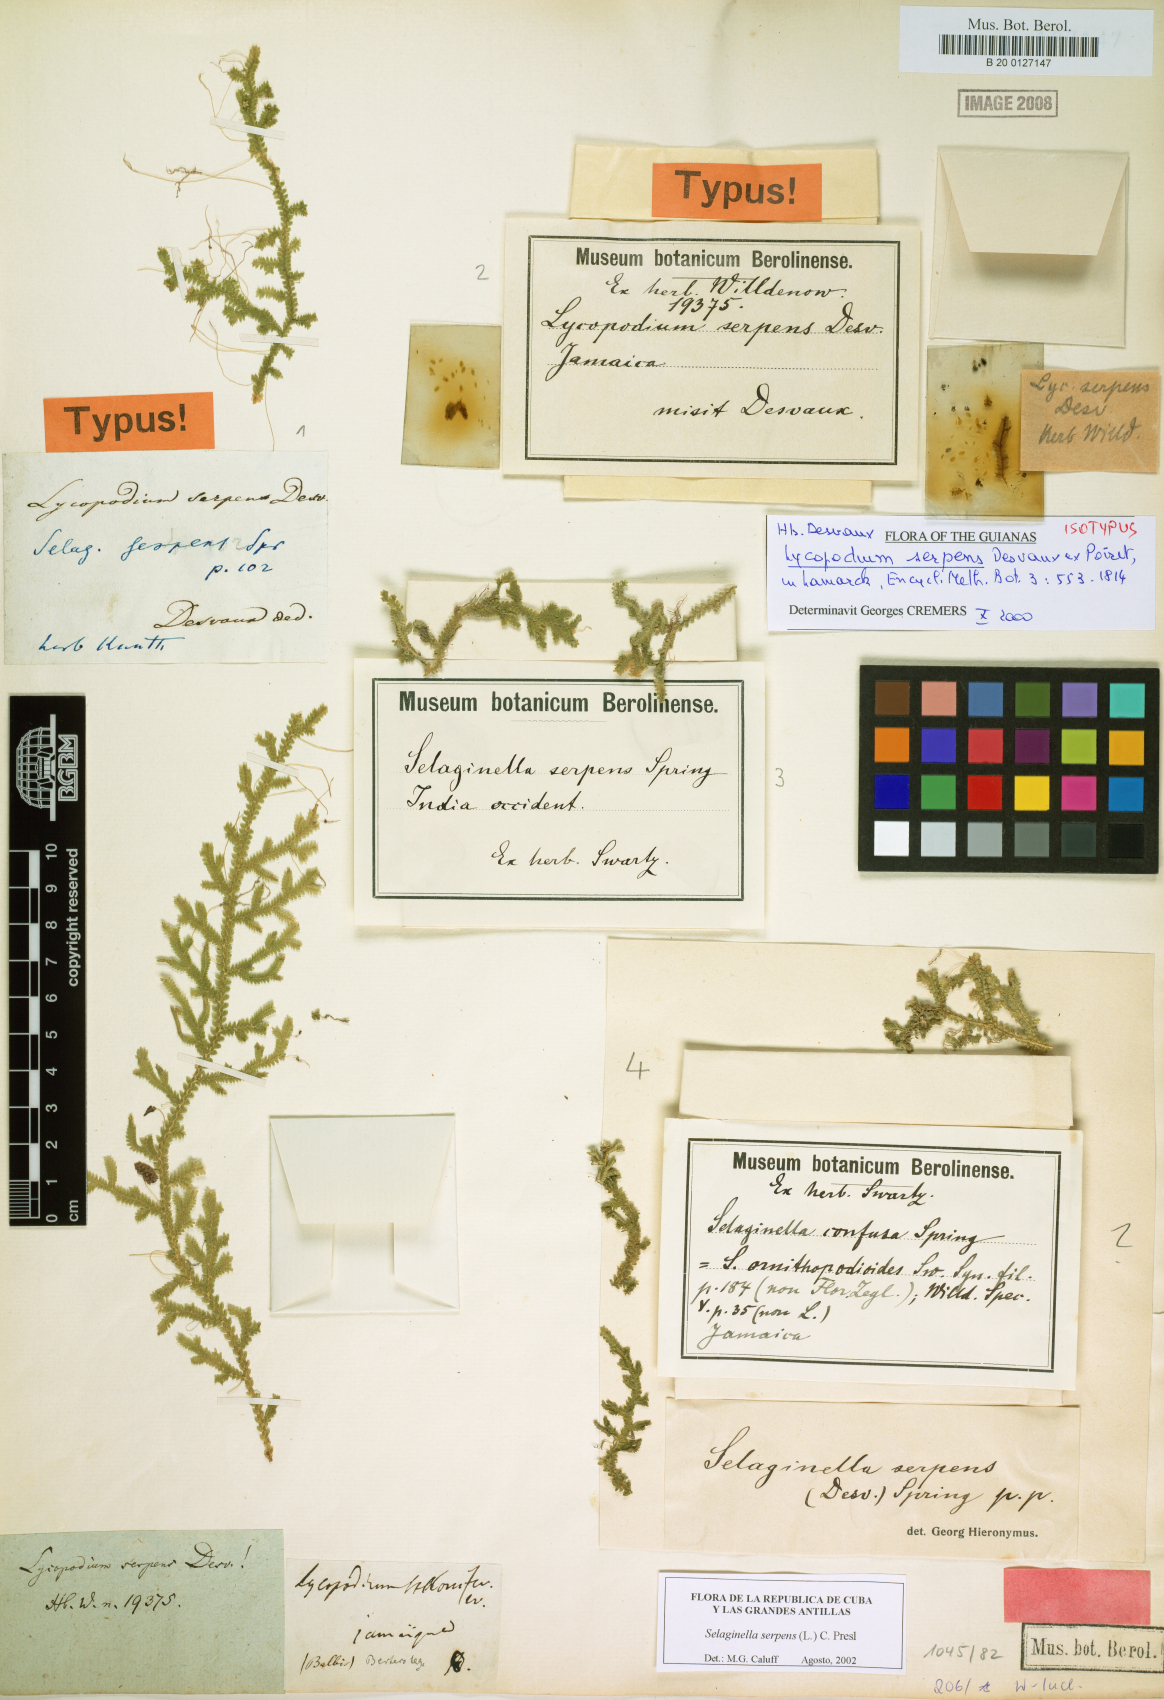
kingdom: Plantae
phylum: Tracheophyta
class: Lycopodiopsida
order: Selaginellales
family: Selaginellaceae
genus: Selaginella
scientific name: Selaginella serpens
